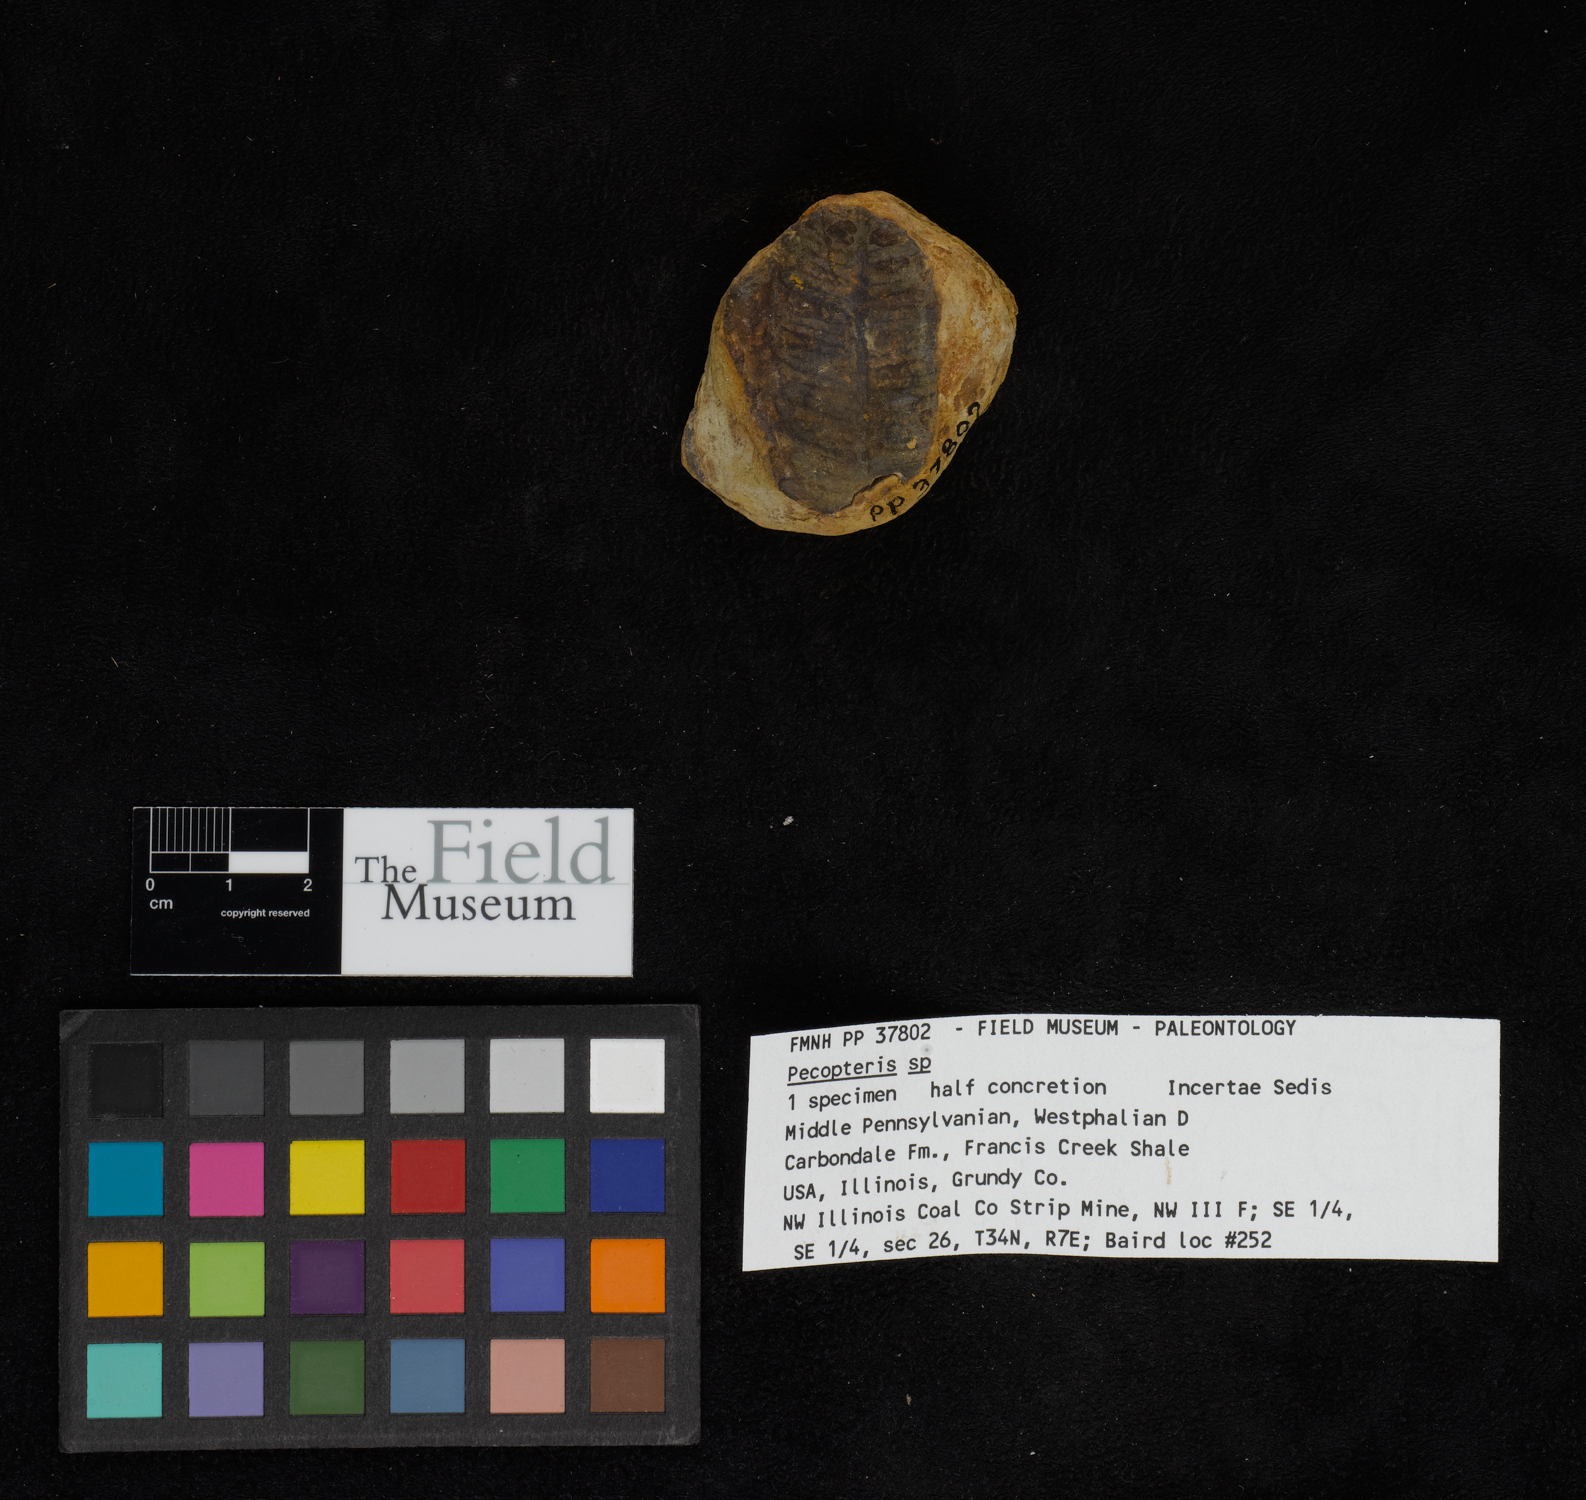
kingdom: Plantae
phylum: Tracheophyta
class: Polypodiopsida
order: Marattiales
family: Asterothecaceae
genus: Pecopteris
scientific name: Pecopteris
